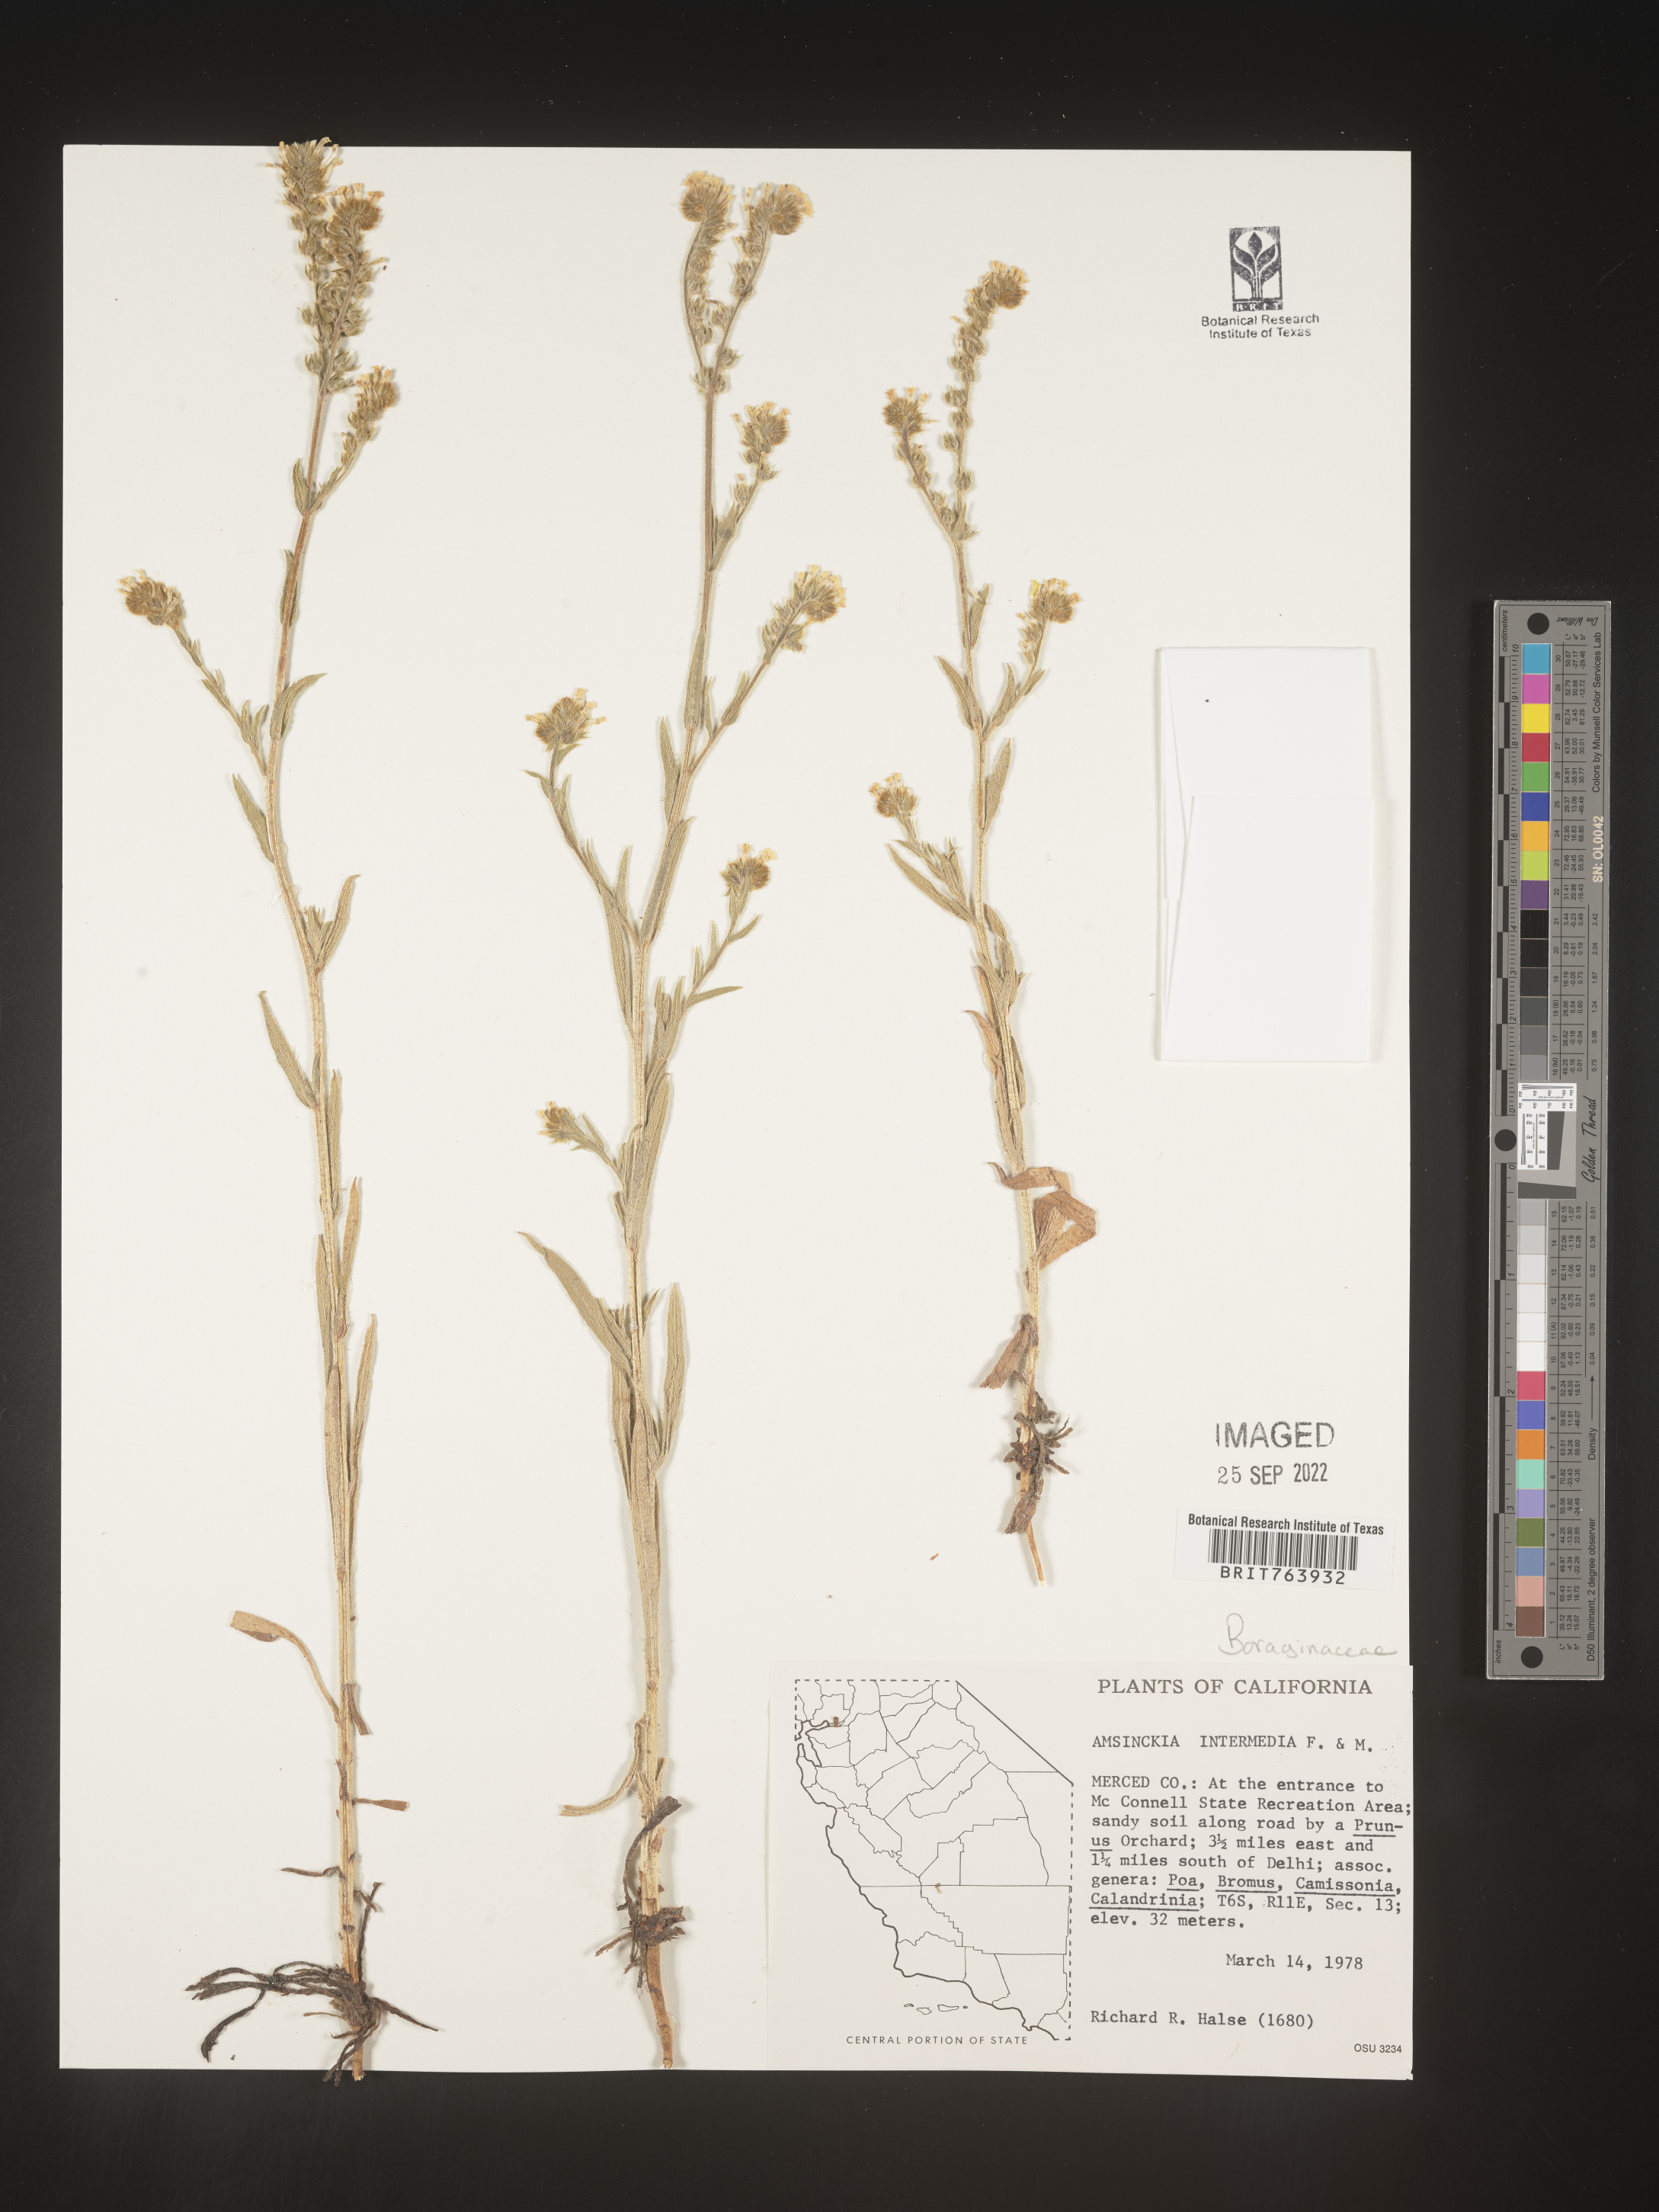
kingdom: Plantae
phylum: Tracheophyta
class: Magnoliopsida
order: Boraginales
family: Boraginaceae
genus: Amsinckia
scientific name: Amsinckia
